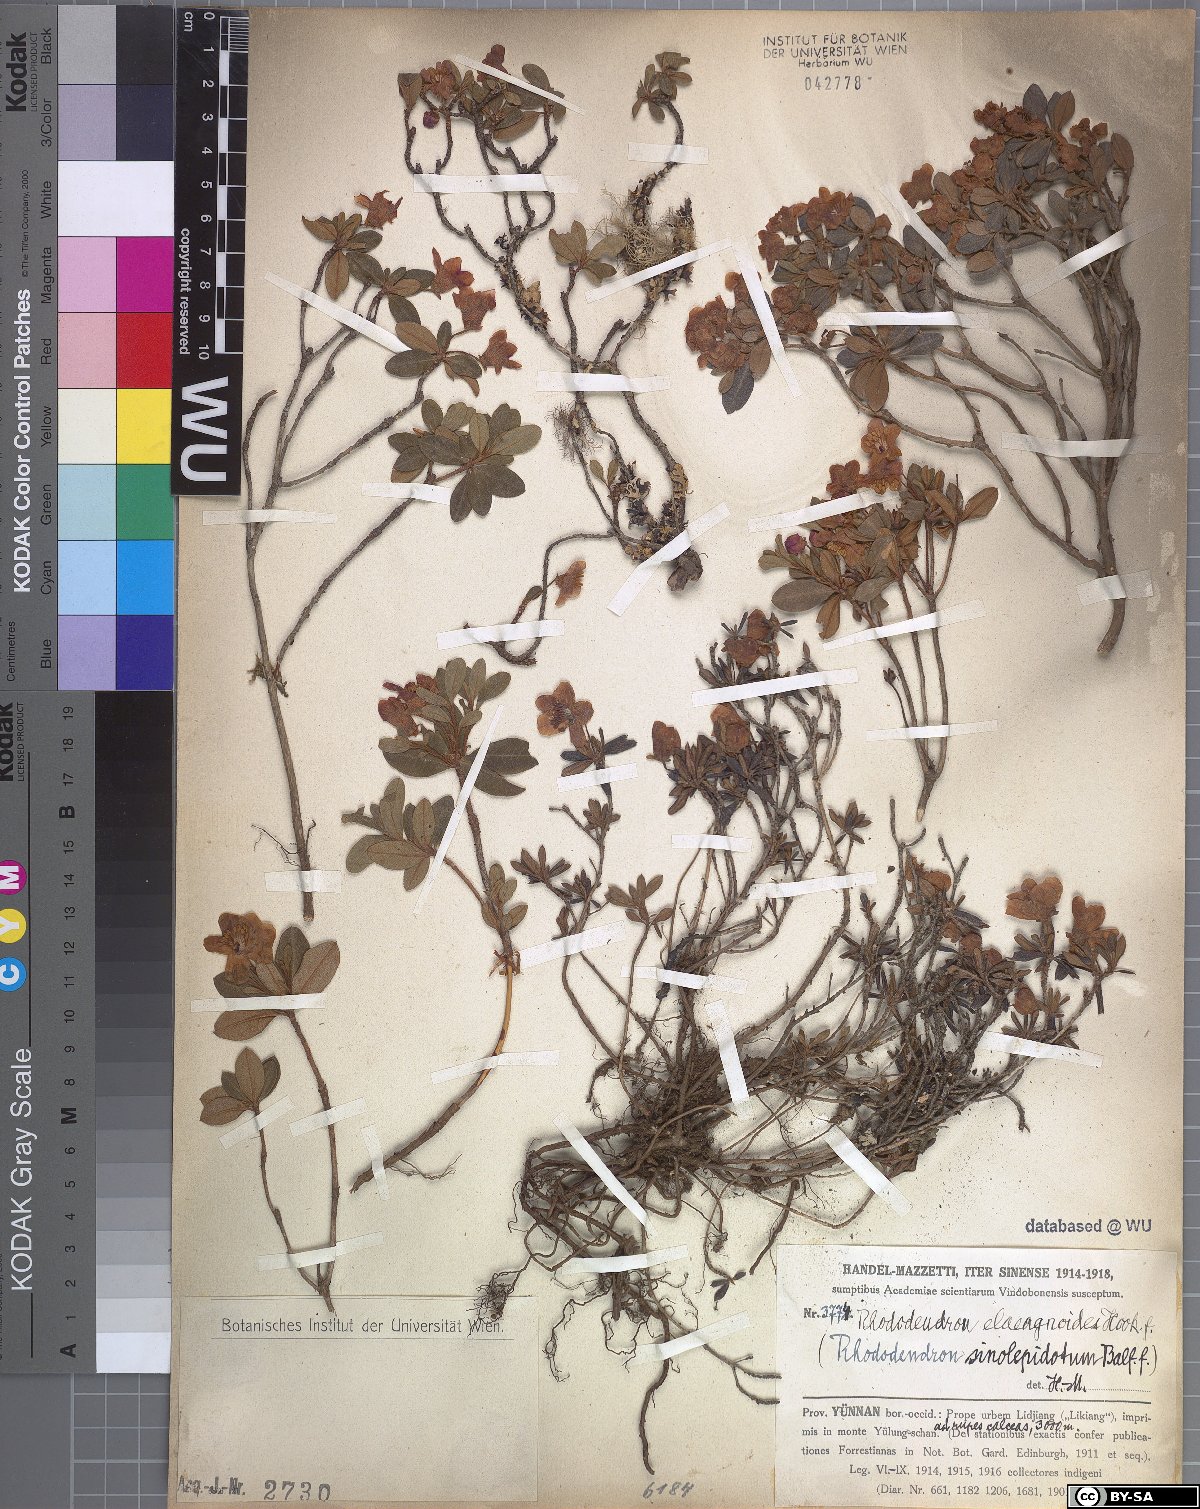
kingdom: Plantae
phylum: Tracheophyta
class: Magnoliopsida
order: Ericales
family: Ericaceae
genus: Rhododendron
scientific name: Rhododendron lepidotum
